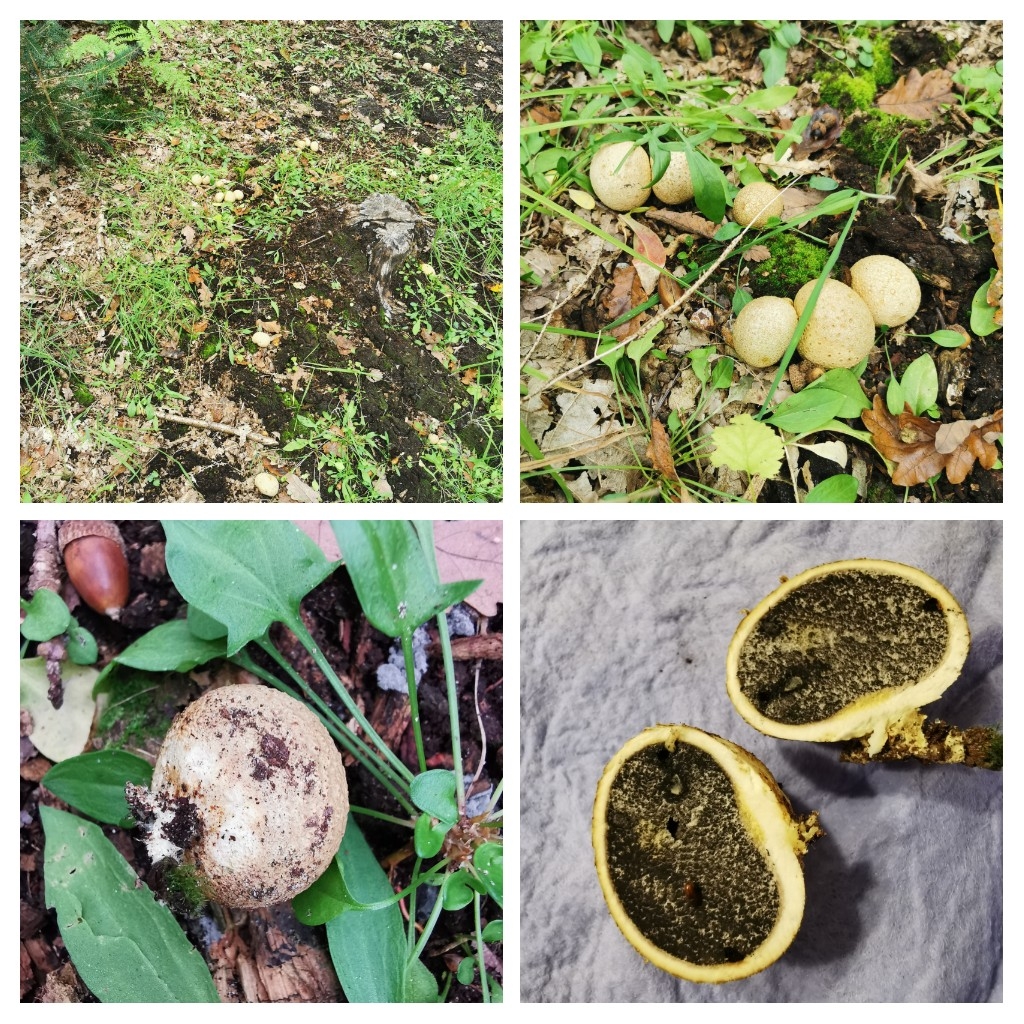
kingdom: Fungi
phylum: Basidiomycota
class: Agaricomycetes
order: Boletales
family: Sclerodermataceae
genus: Scleroderma
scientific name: Scleroderma citrinum
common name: almindelig bruskbold
